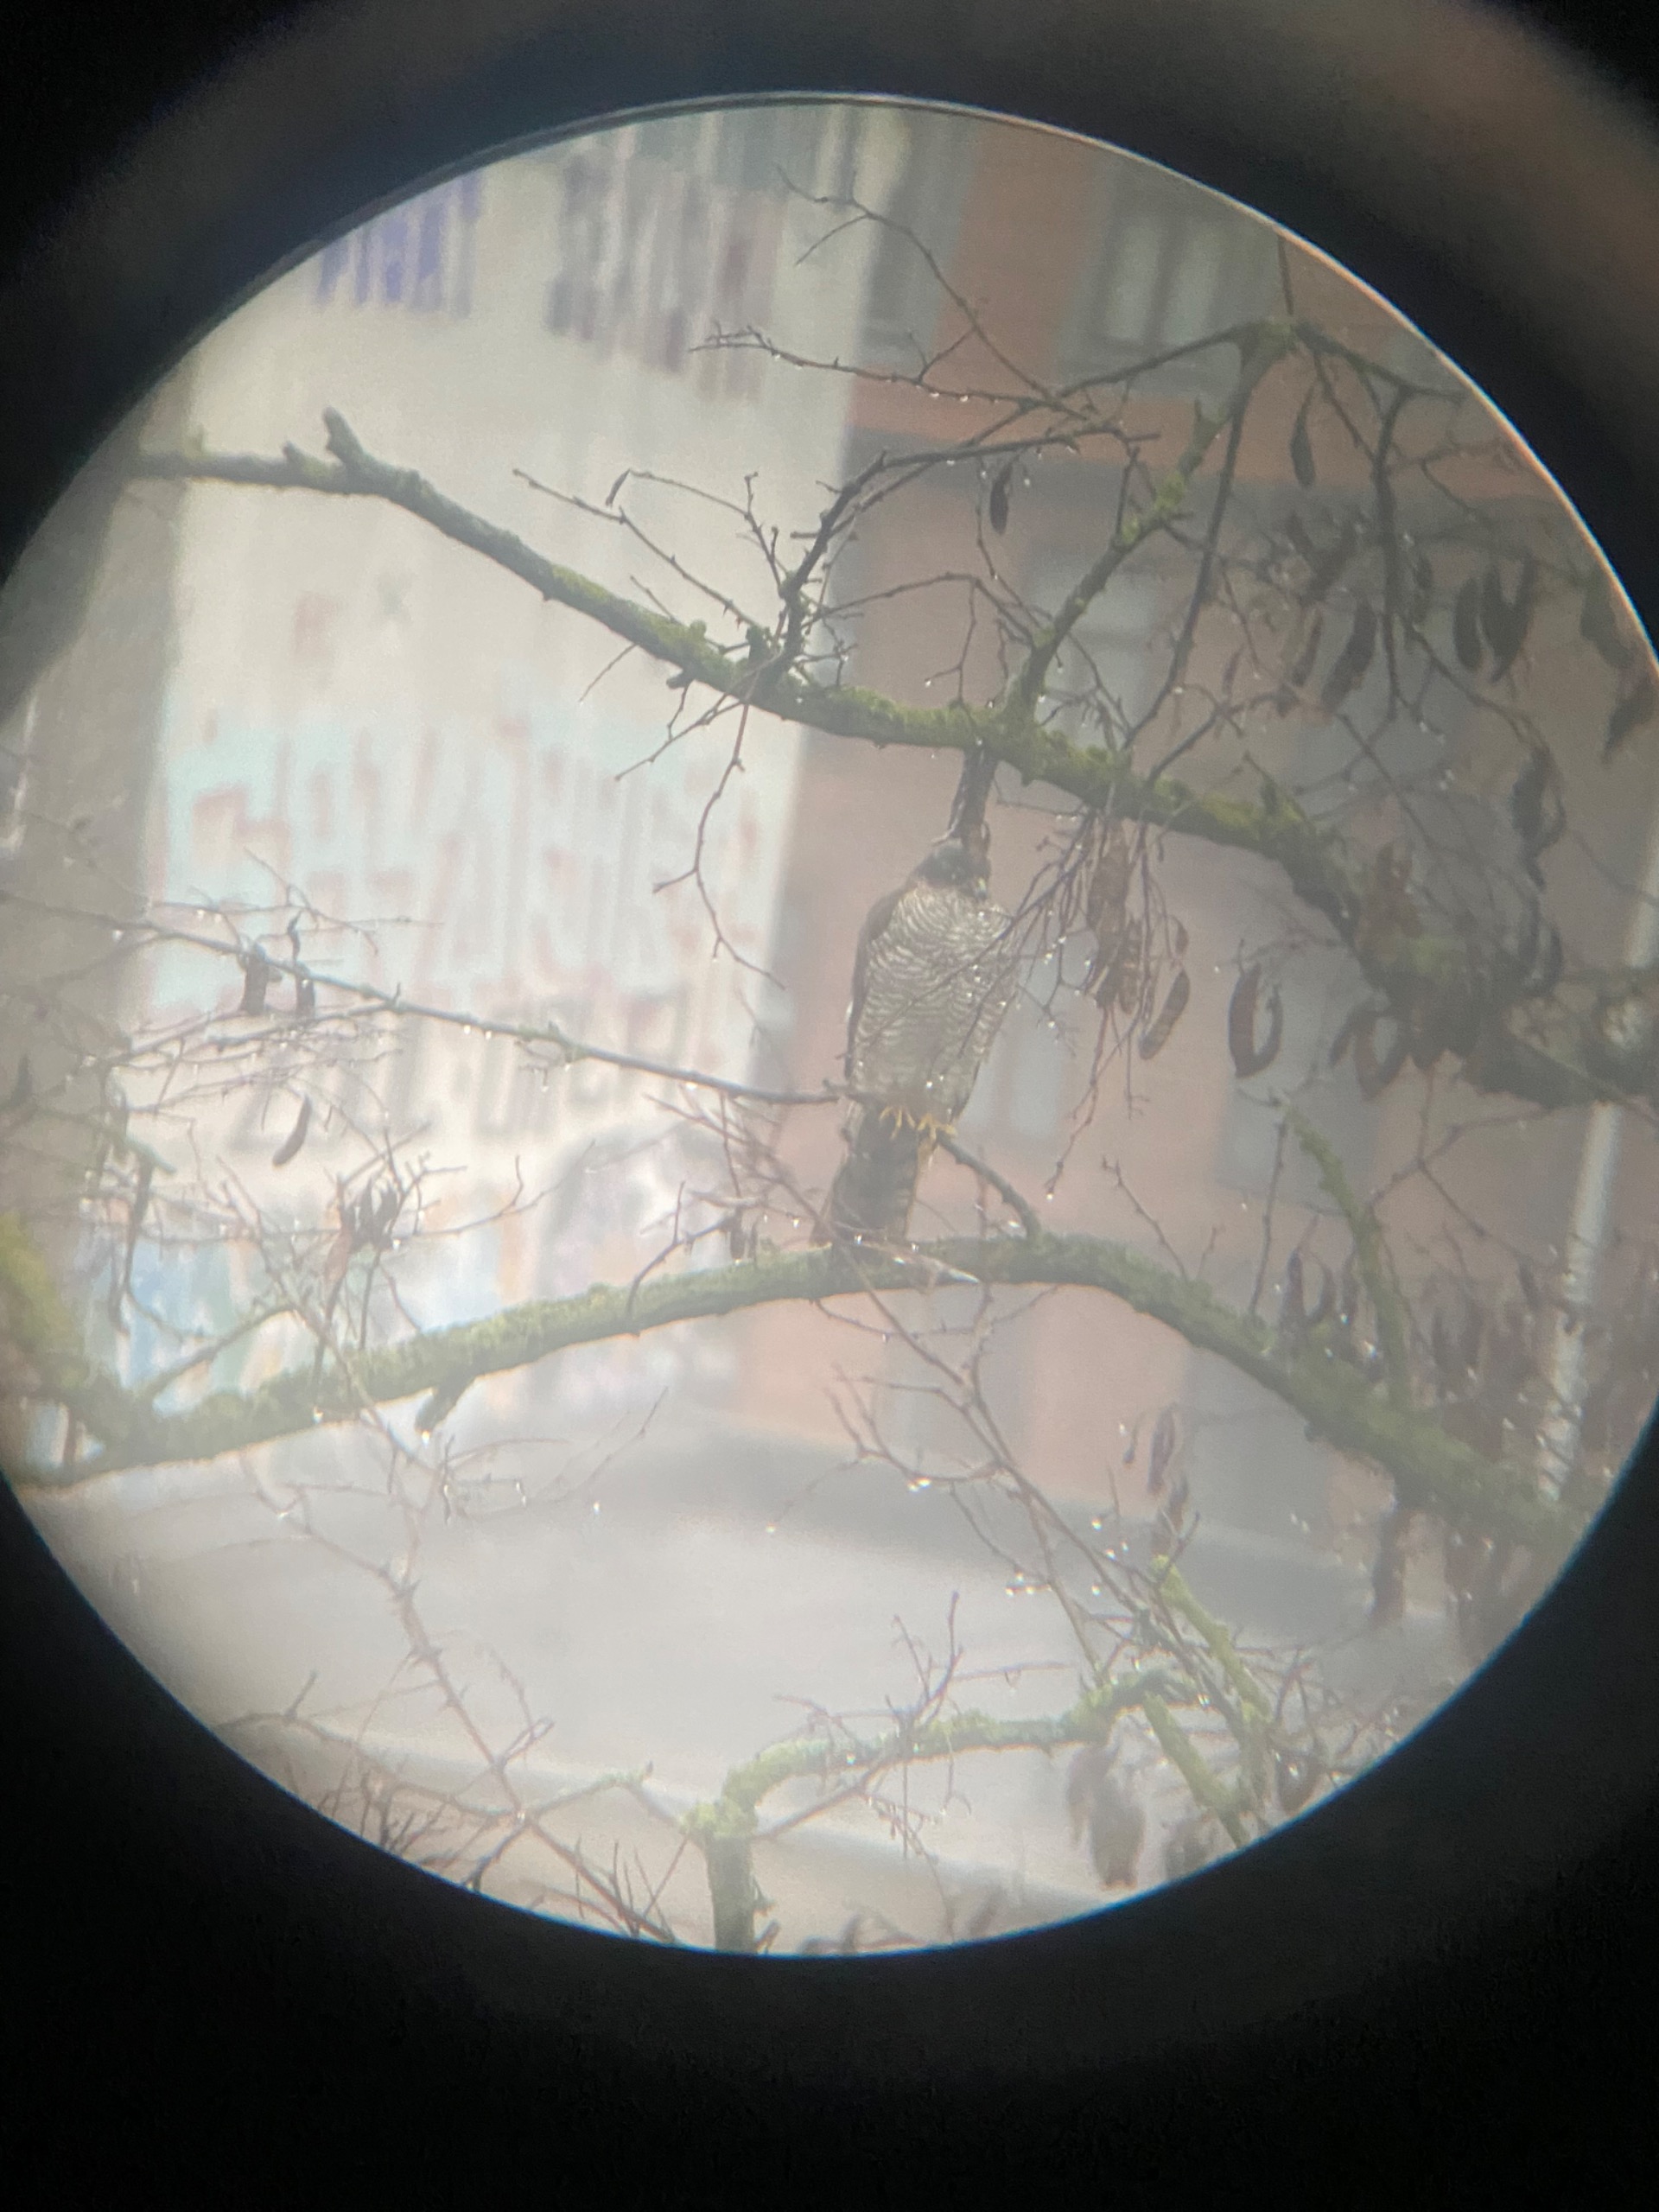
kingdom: Animalia
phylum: Chordata
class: Aves
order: Accipitriformes
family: Accipitridae
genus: Accipiter
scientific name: Accipiter nisus
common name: Spurvehøg
